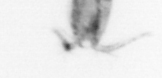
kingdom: Animalia
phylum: Arthropoda
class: Copepoda
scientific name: Copepoda
